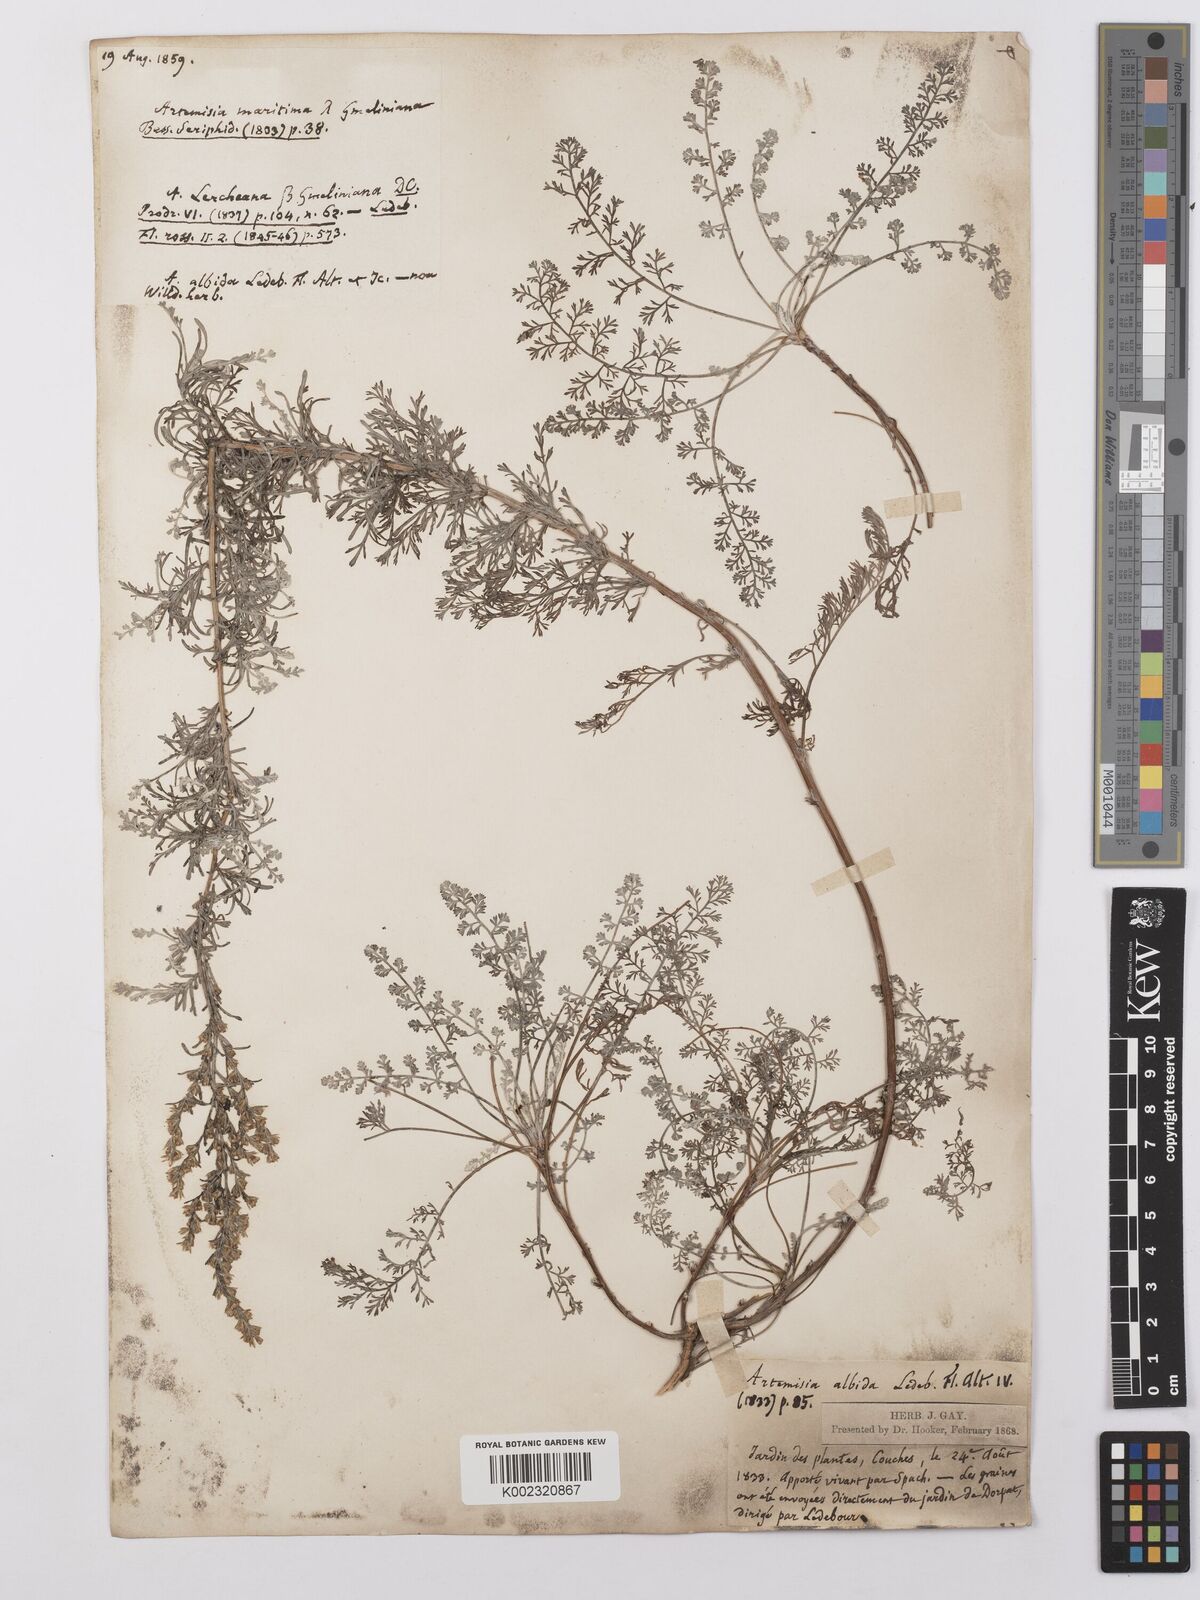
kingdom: Plantae
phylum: Tracheophyta
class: Magnoliopsida
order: Asterales
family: Asteraceae
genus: Artemisia
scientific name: Artemisia maritima
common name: Wormseed
